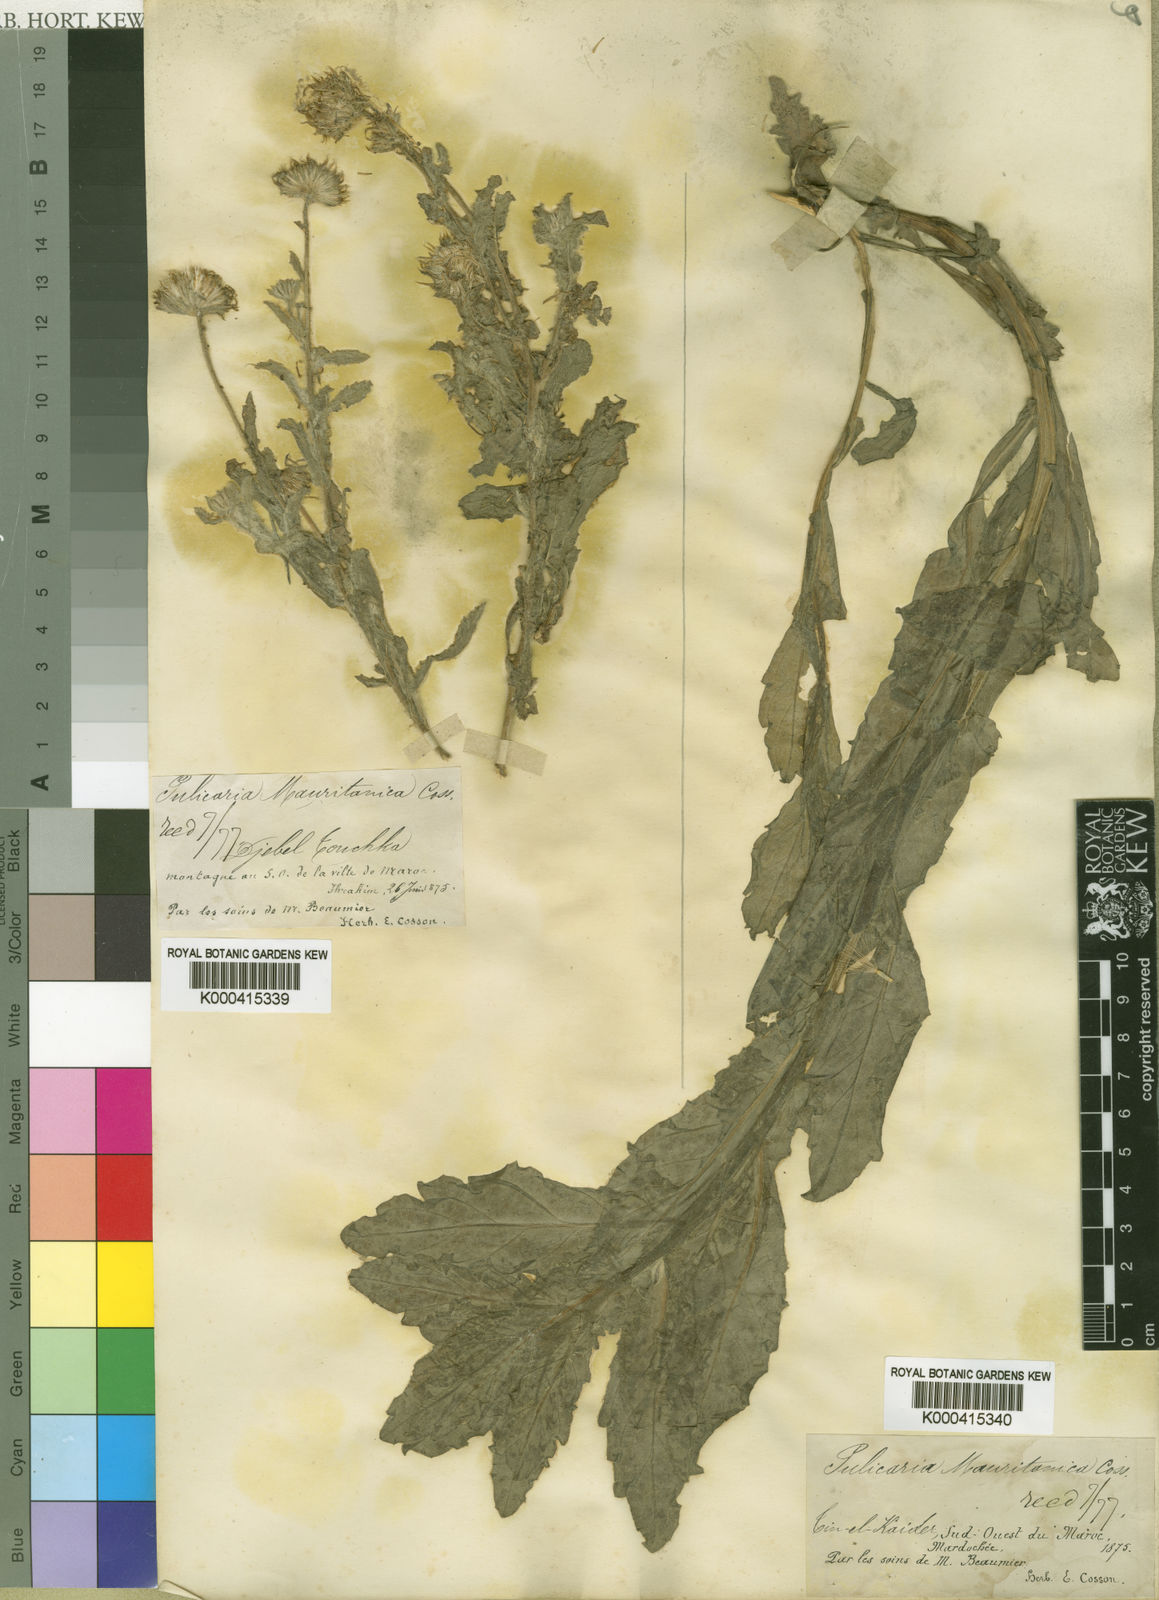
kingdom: Plantae
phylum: Tracheophyta
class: Magnoliopsida
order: Asterales
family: Asteraceae
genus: Pulicaria
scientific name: Pulicaria mauritanica
